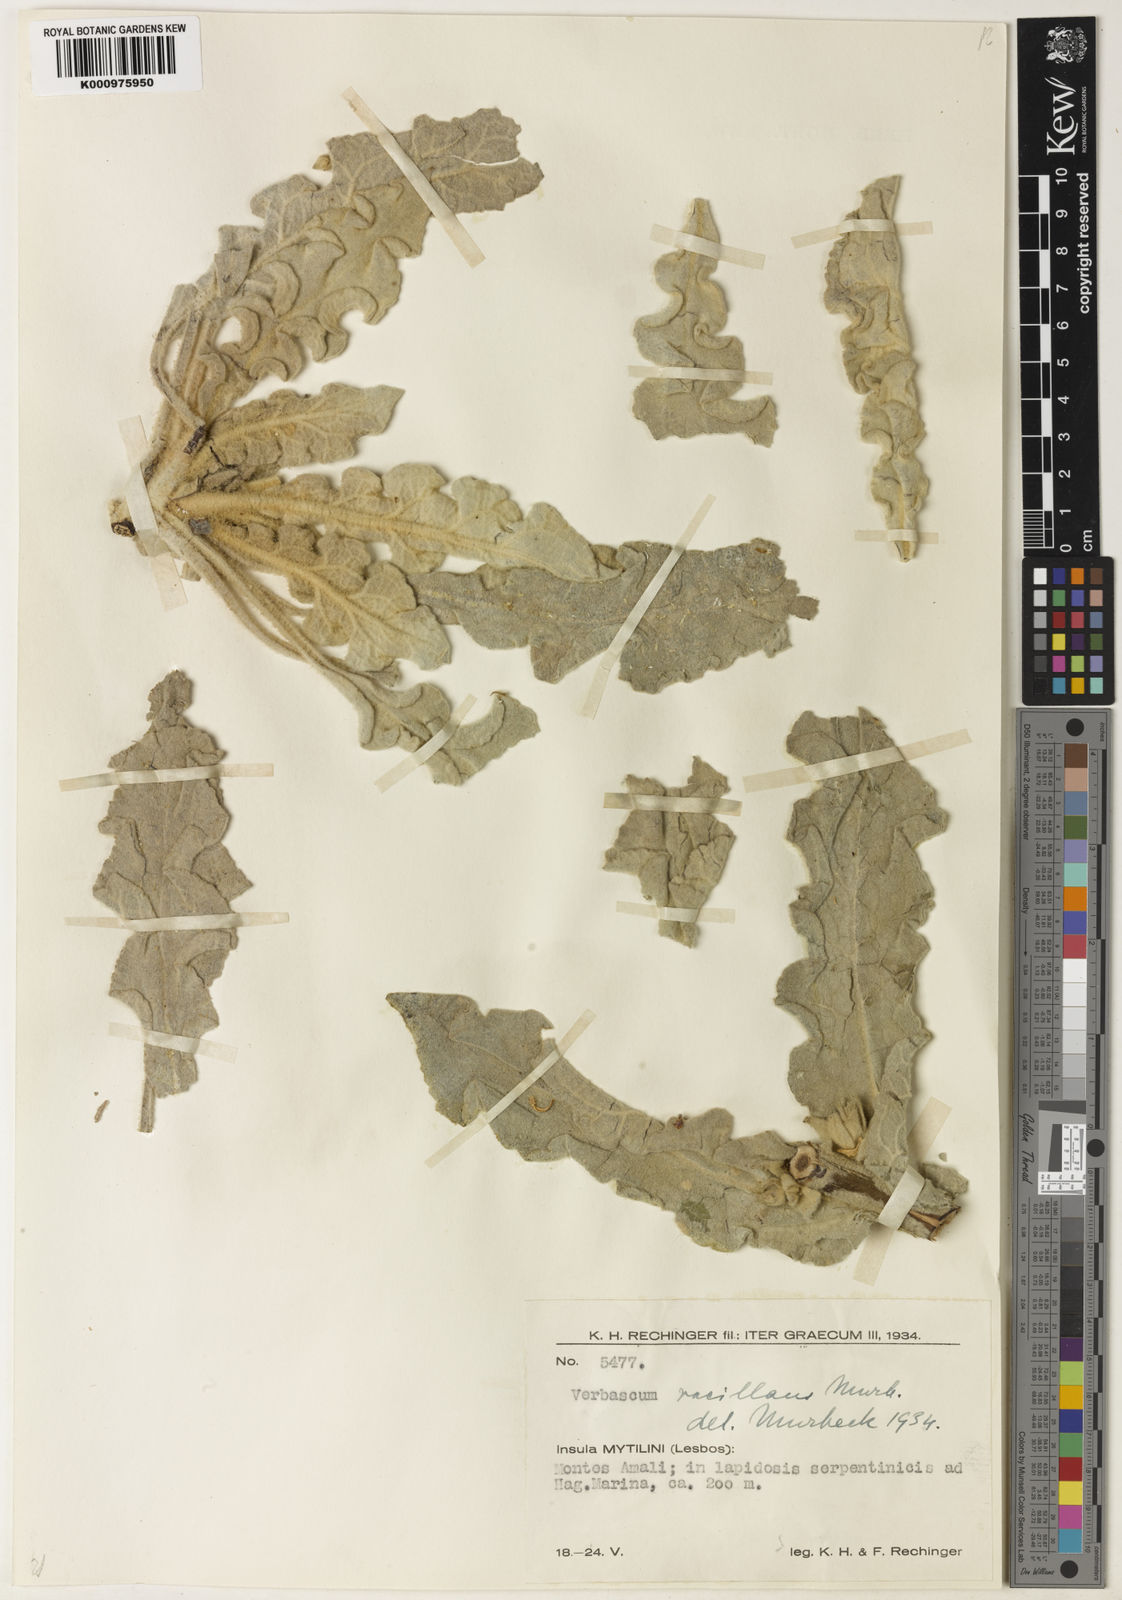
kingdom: Plantae
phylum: Tracheophyta
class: Magnoliopsida
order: Lamiales
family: Scrophulariaceae
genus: Verbascum
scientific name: Verbascum vacillans
